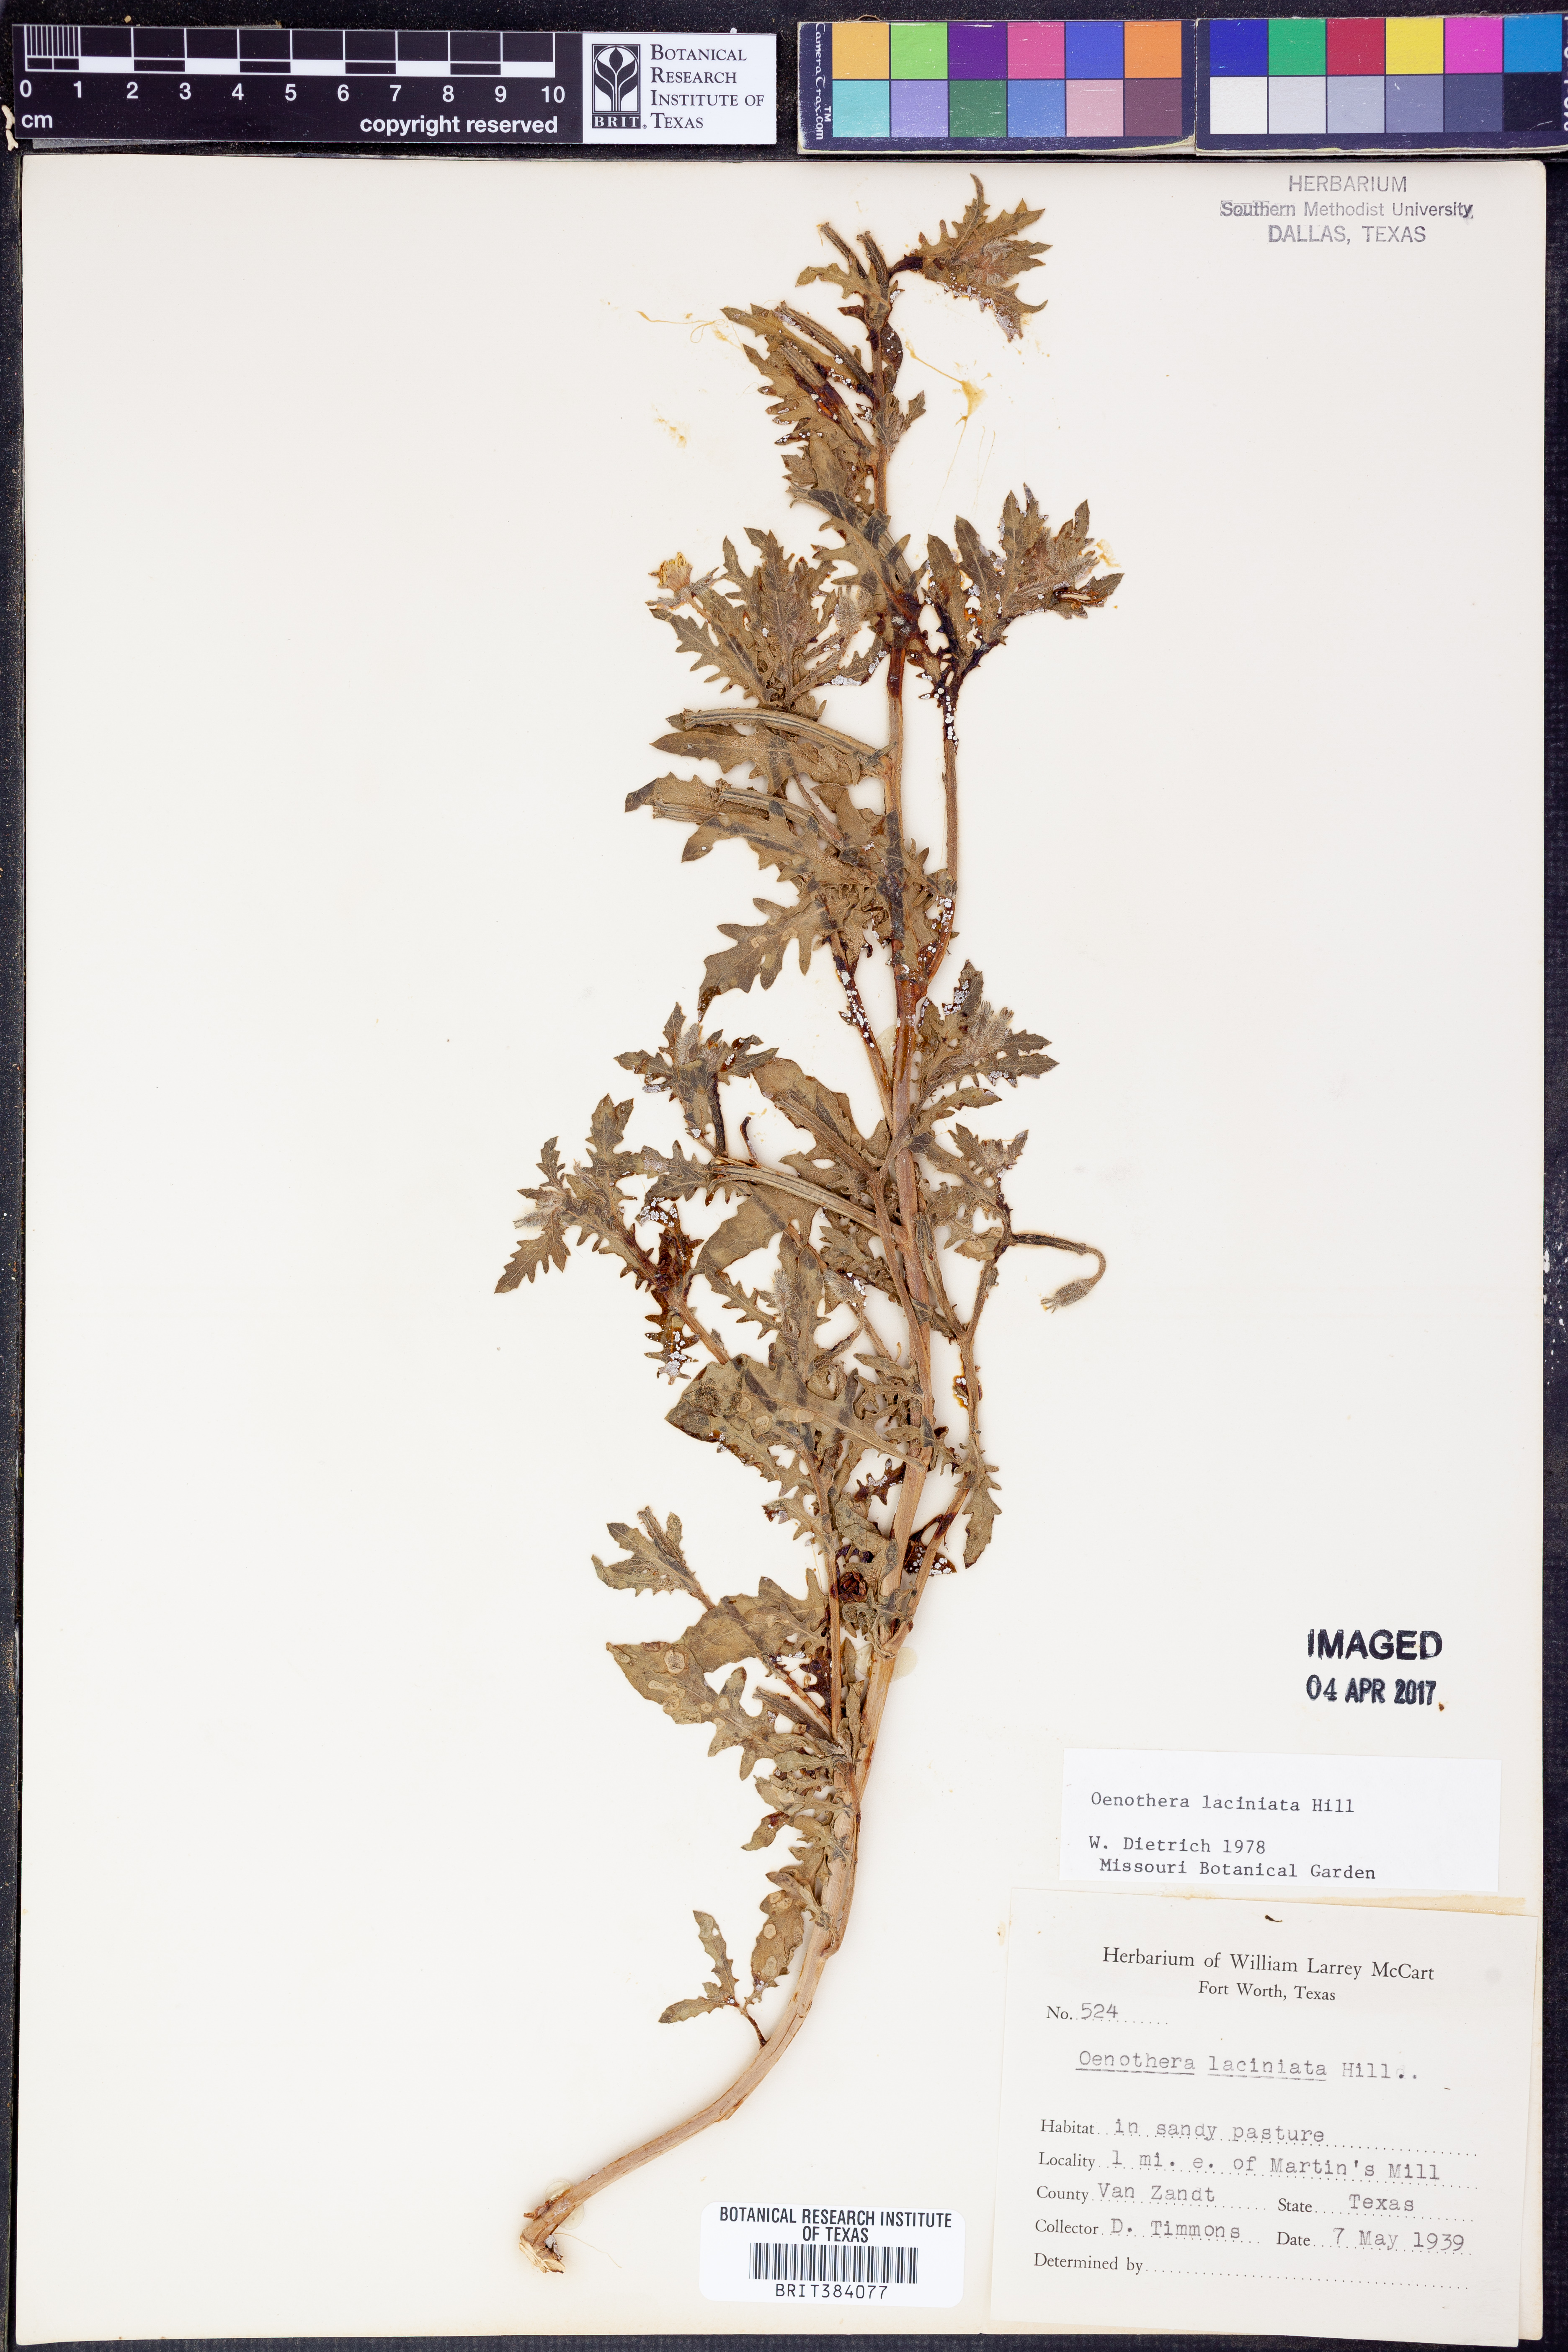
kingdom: Plantae
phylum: Tracheophyta
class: Magnoliopsida
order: Myrtales
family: Onagraceae
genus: Oenothera
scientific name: Oenothera laciniata
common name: Cut-leaved evening-primrose
